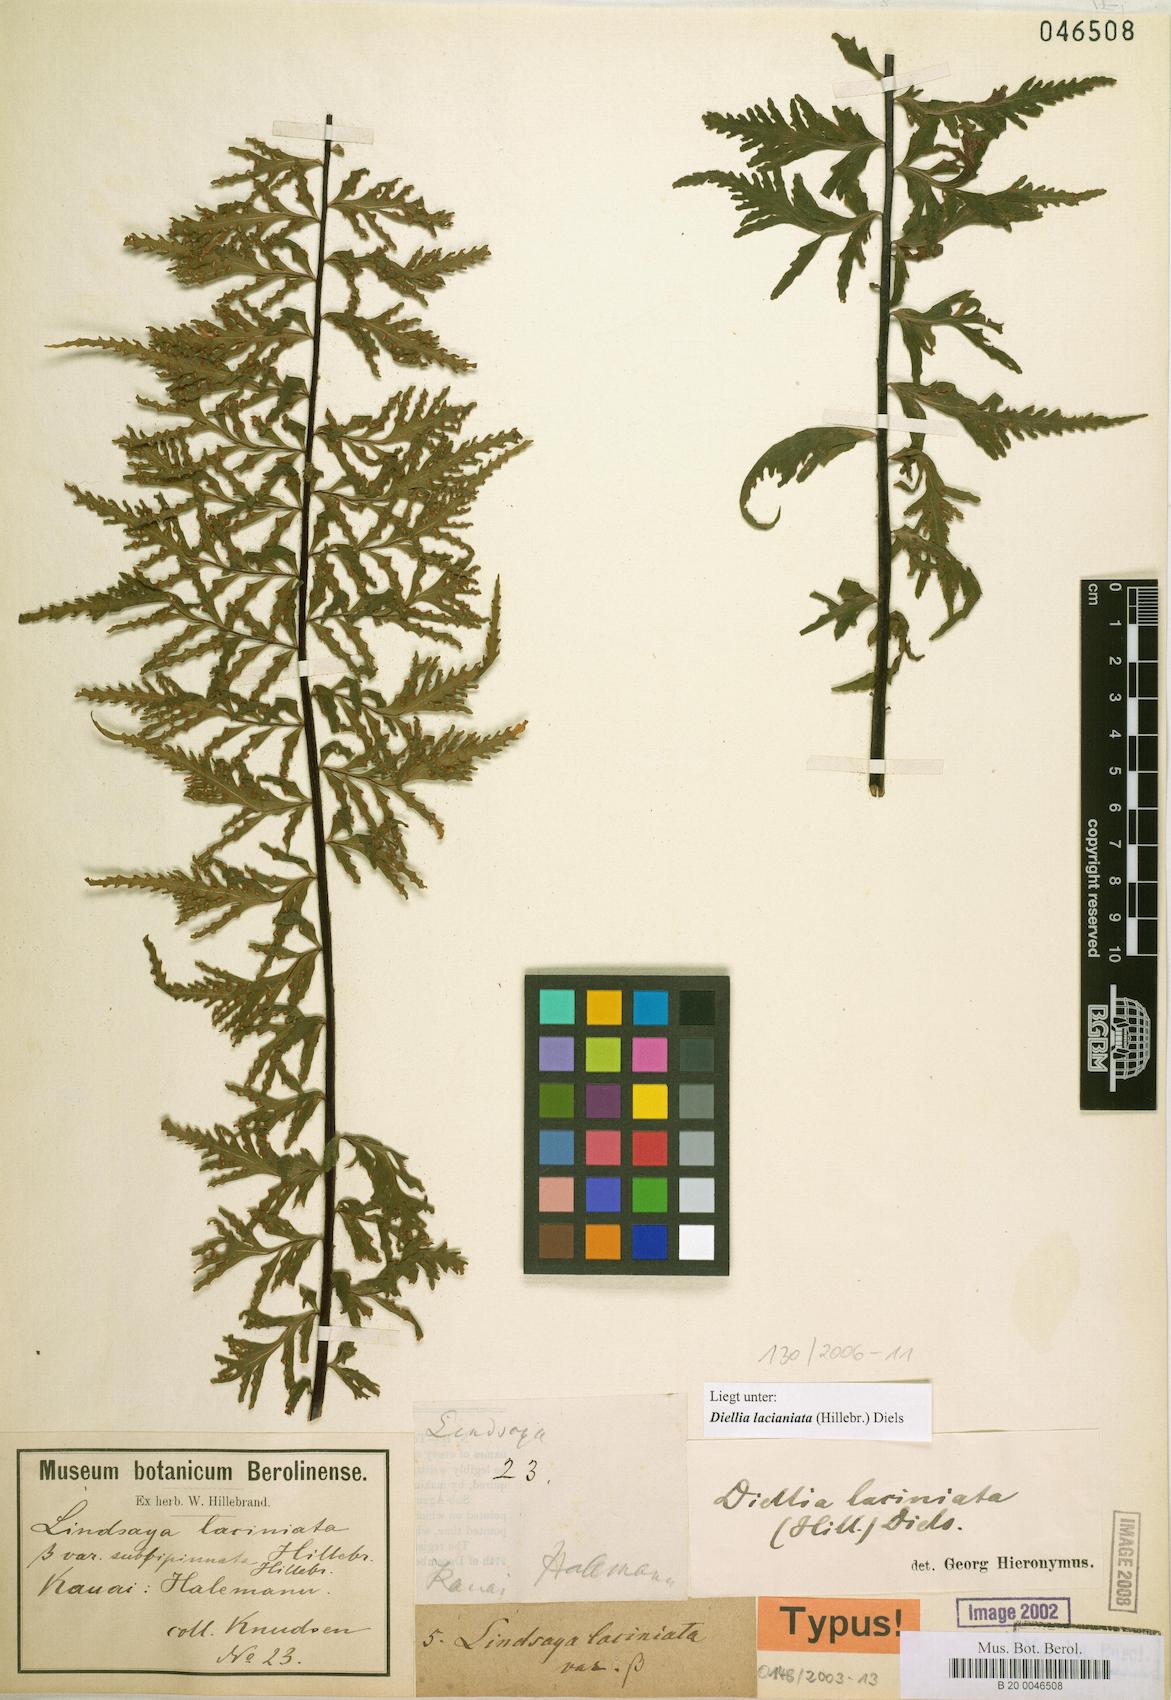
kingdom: Plantae
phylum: Tracheophyta
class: Polypodiopsida
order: Polypodiales
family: Aspleniaceae
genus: Asplenium
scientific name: Asplenium diellaciniatum
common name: Cutleaf island spleenwort
